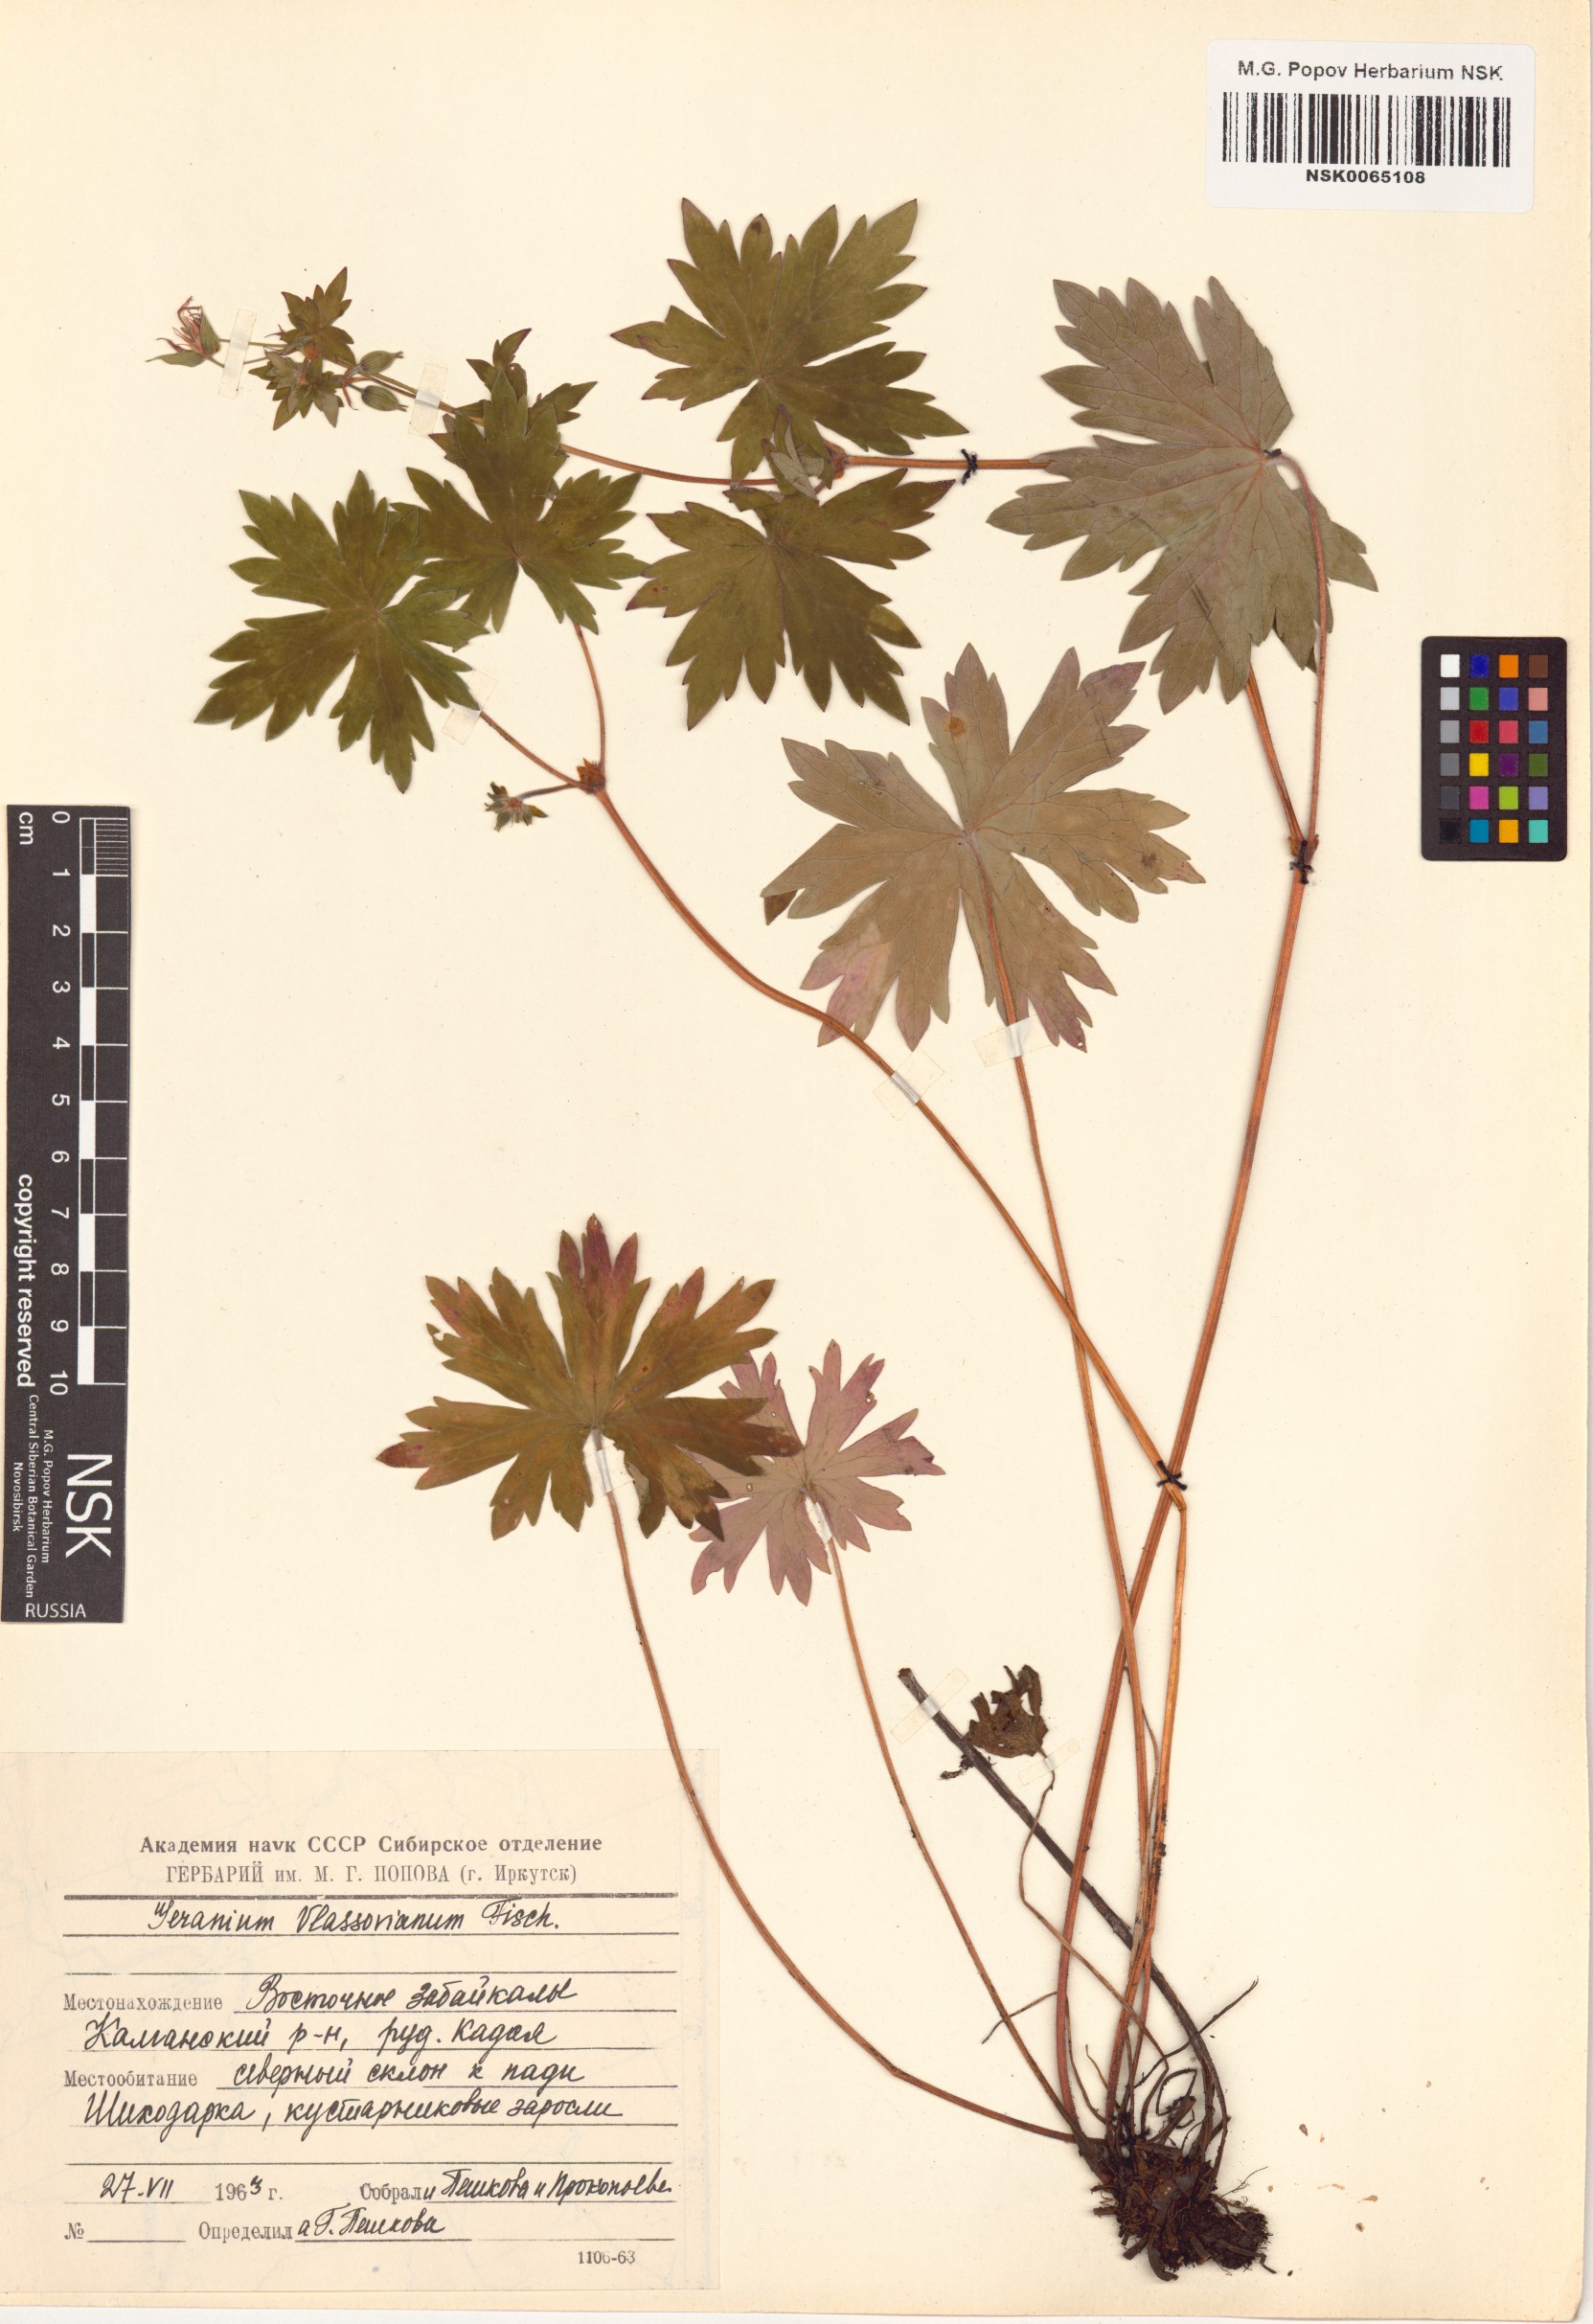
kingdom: Plantae
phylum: Tracheophyta
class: Magnoliopsida
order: Geraniales
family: Geraniaceae
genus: Geranium
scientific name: Geranium wlassovianum
